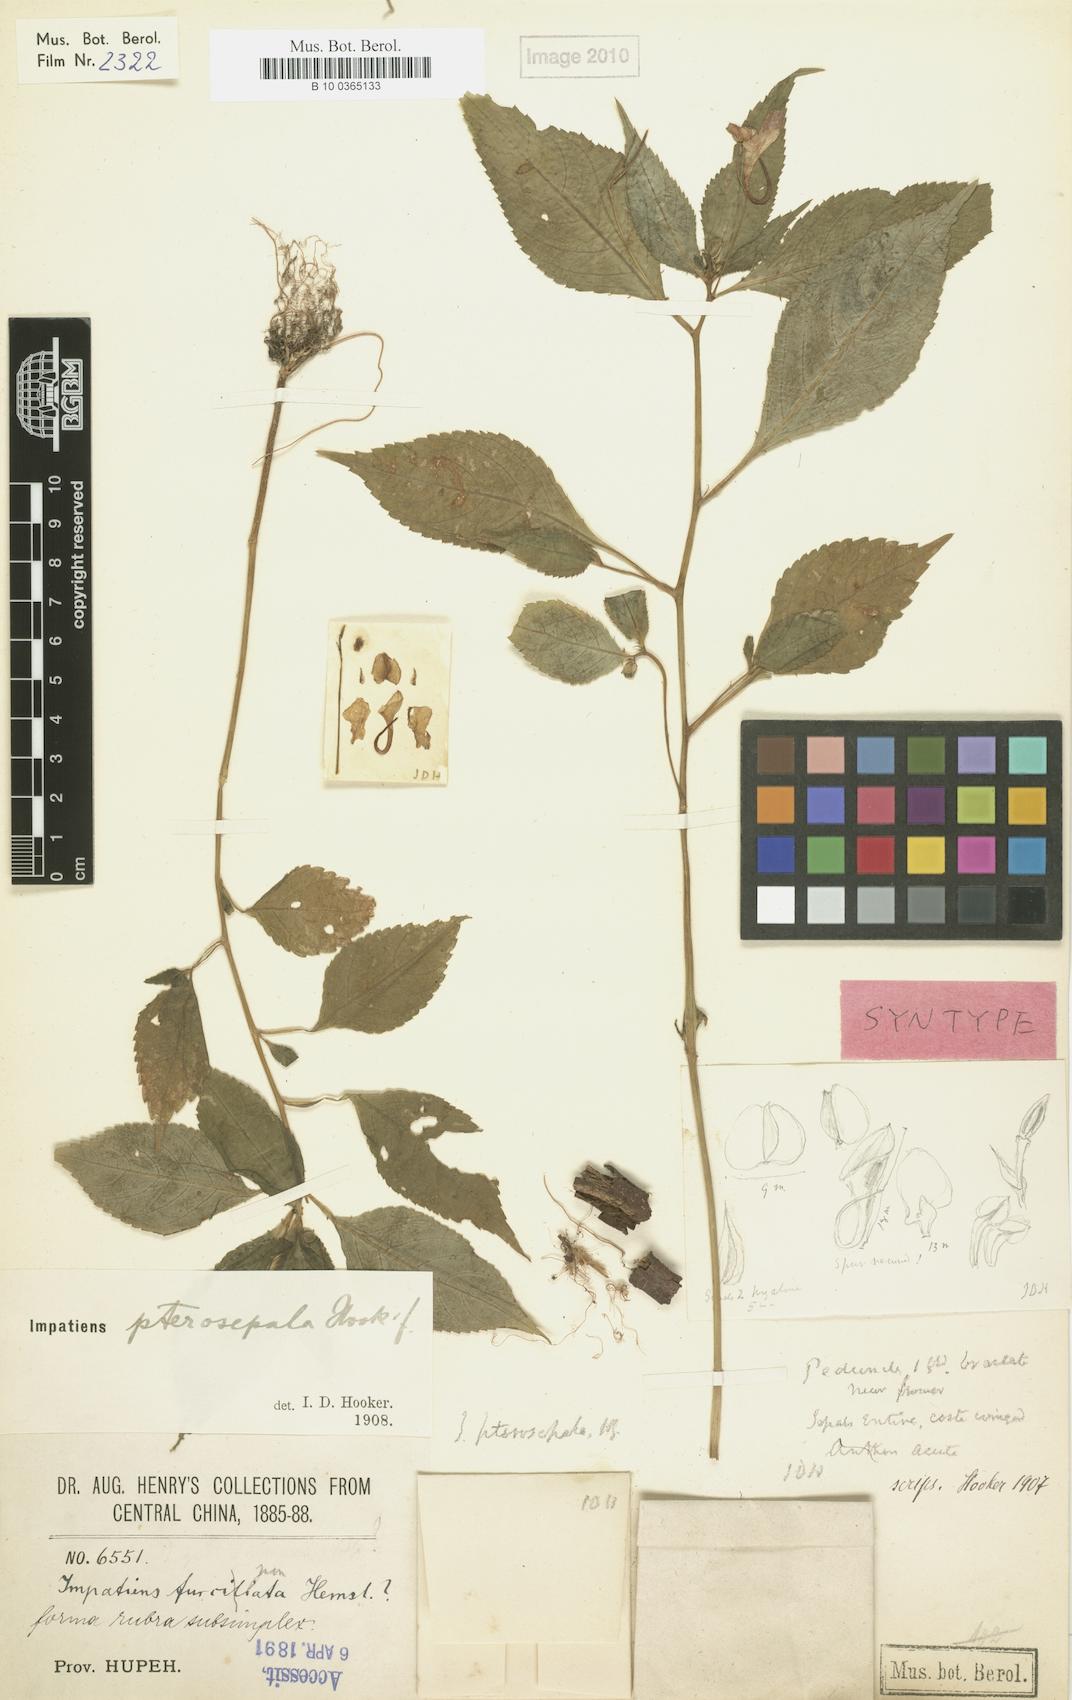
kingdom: Plantae
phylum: Tracheophyta
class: Magnoliopsida
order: Ericales
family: Balsaminaceae
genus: Impatiens
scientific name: Impatiens pterosepala
